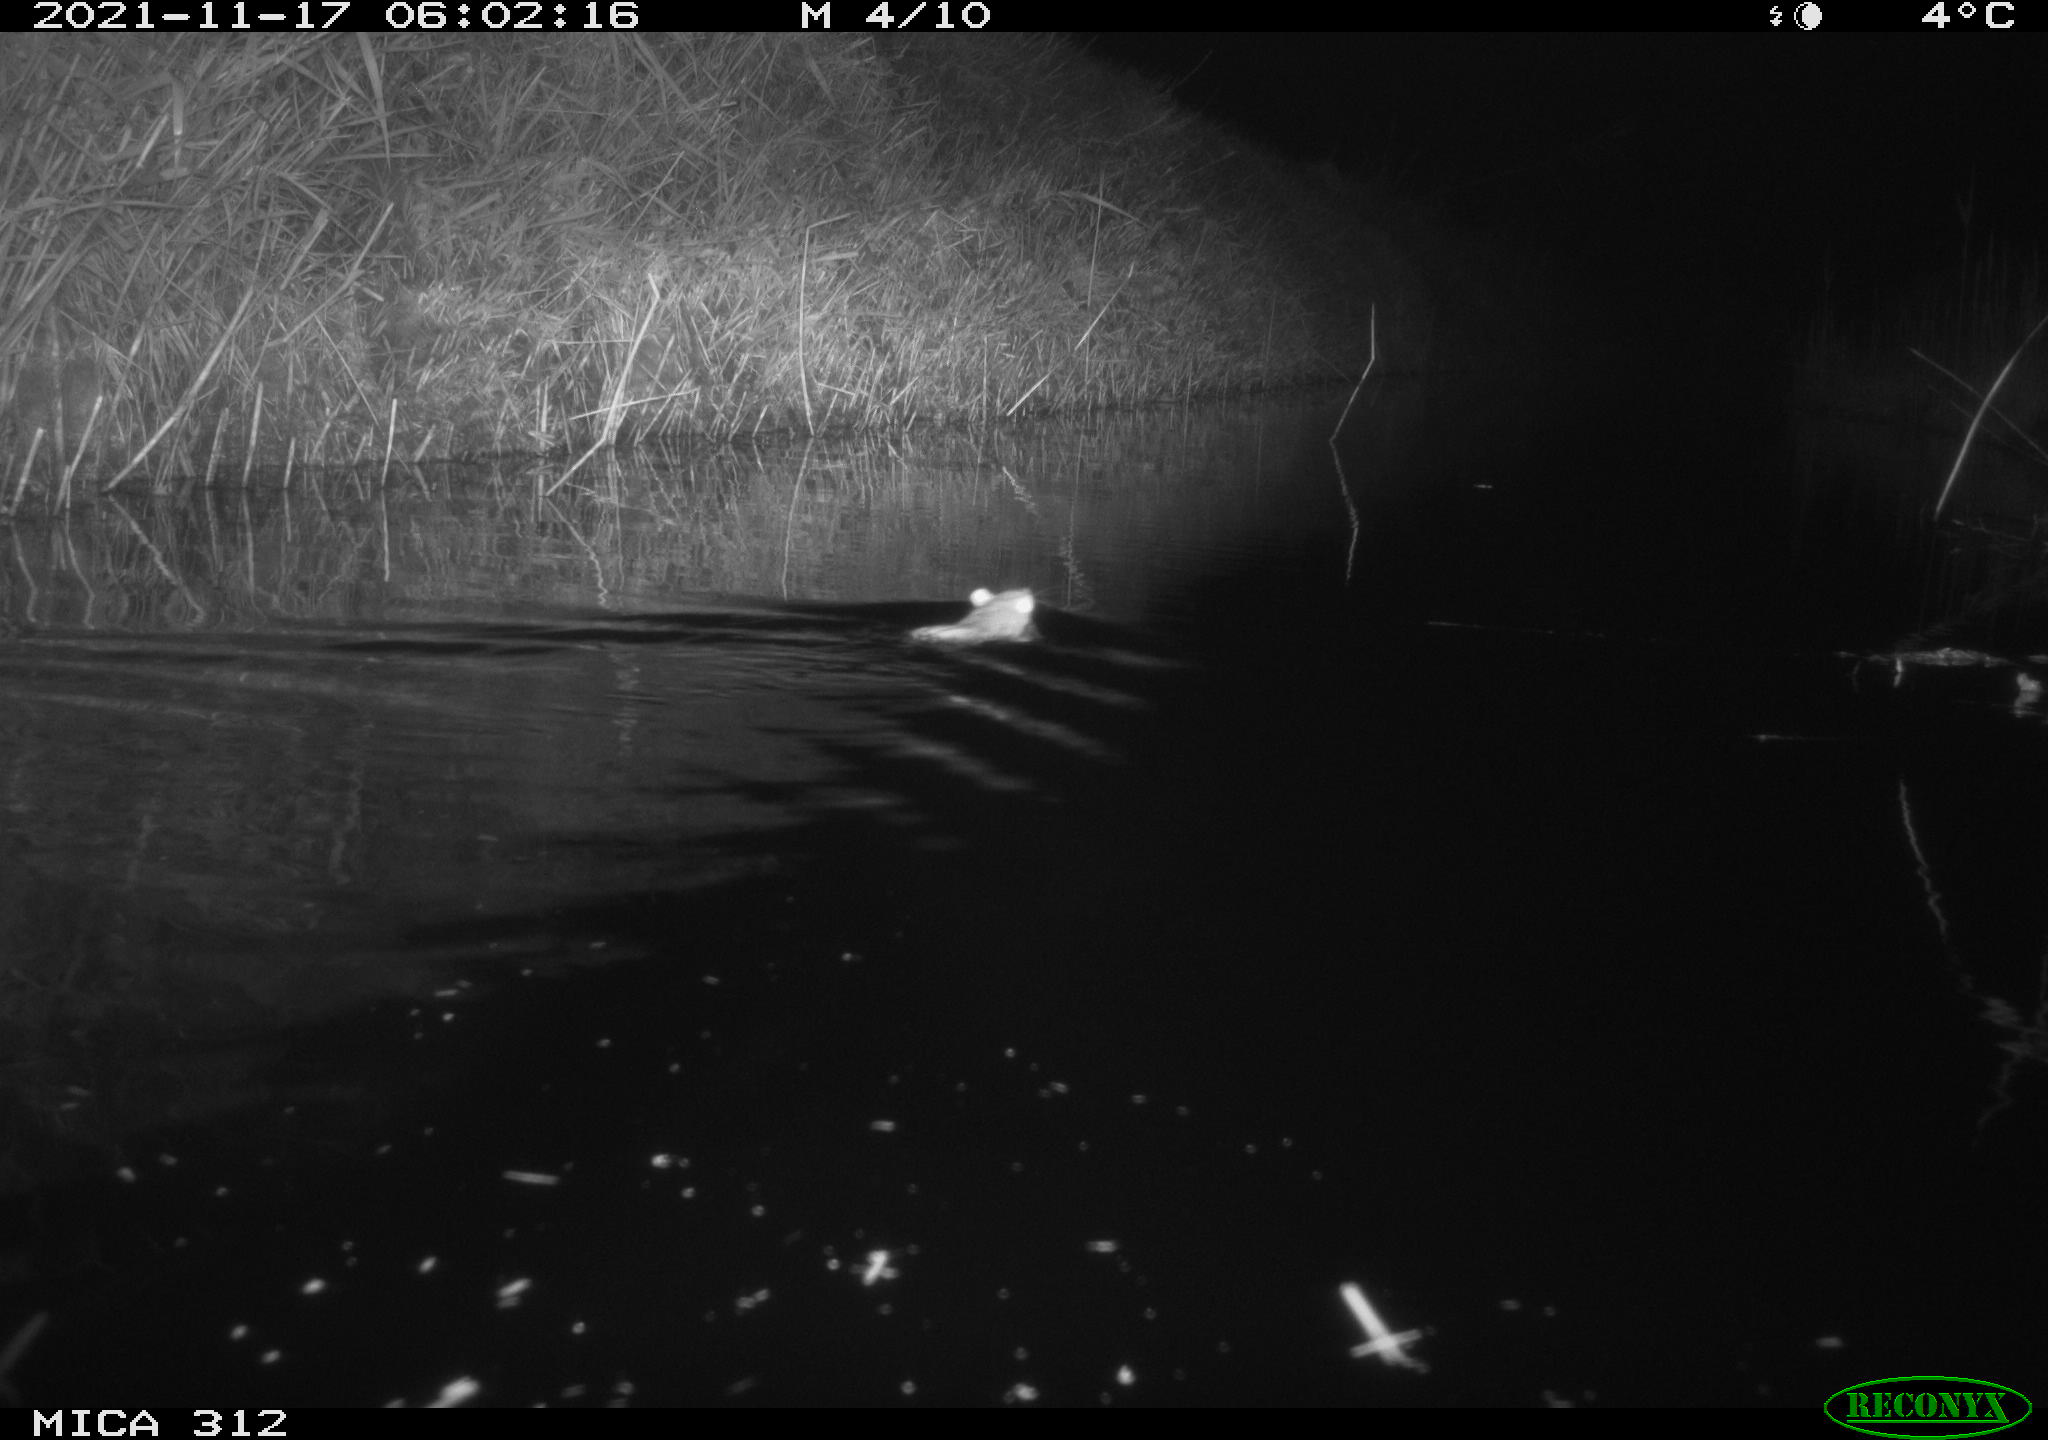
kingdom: Animalia
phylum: Chordata
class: Mammalia
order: Rodentia
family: Muridae
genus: Rattus
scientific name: Rattus norvegicus
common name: Brown rat
